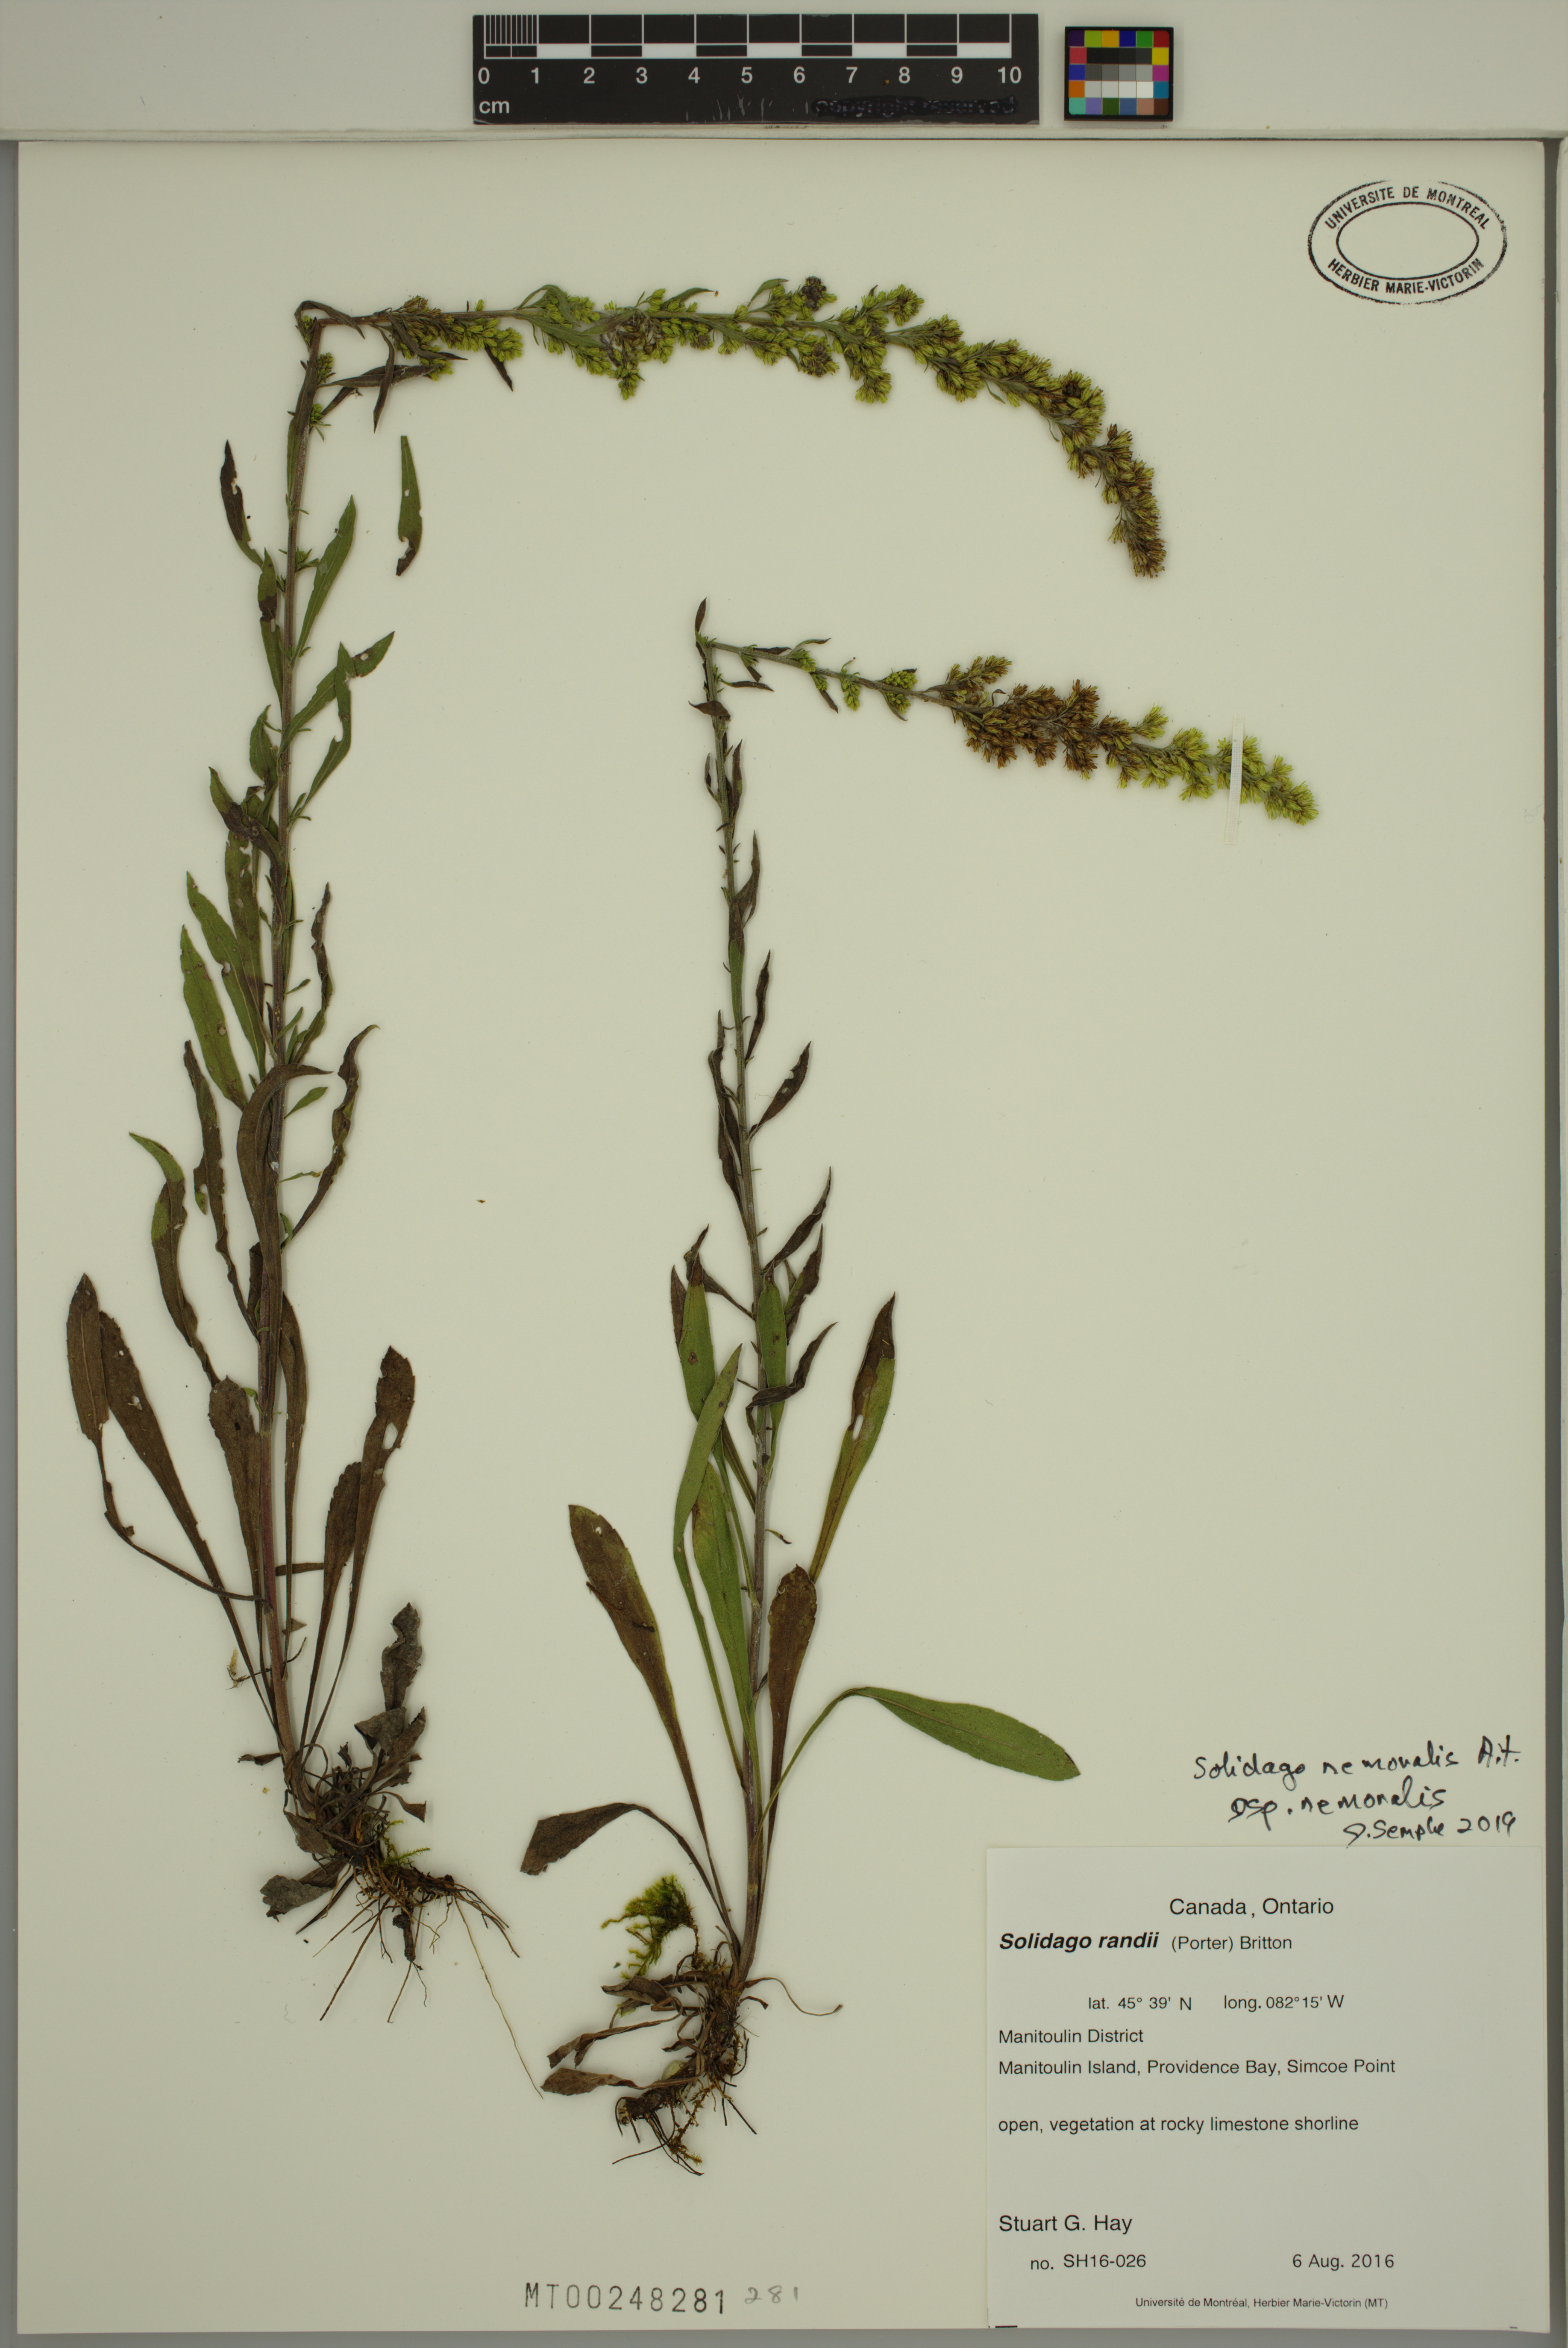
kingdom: Plantae
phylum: Tracheophyta
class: Magnoliopsida
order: Asterales
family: Asteraceae
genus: Solidago
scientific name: Solidago nemoralis
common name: Grey goldenrod
